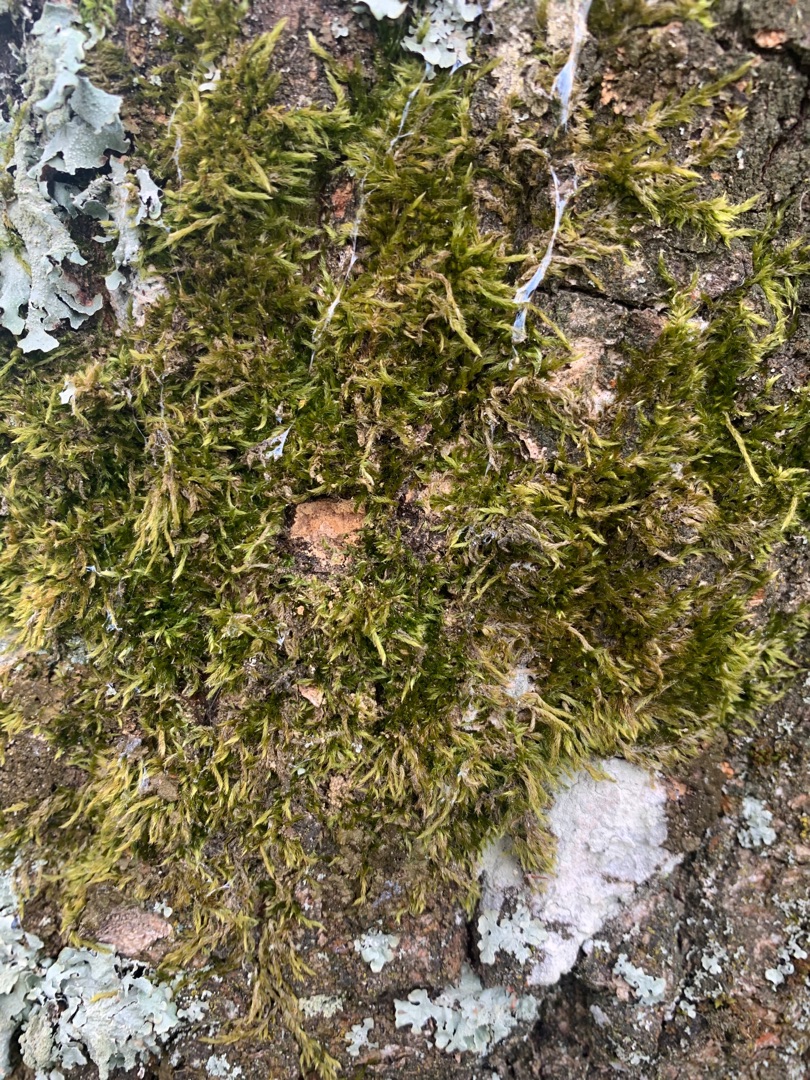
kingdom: Plantae
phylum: Bryophyta
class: Bryopsida
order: Hypnales
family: Hypnaceae
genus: Hypnum
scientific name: Hypnum
